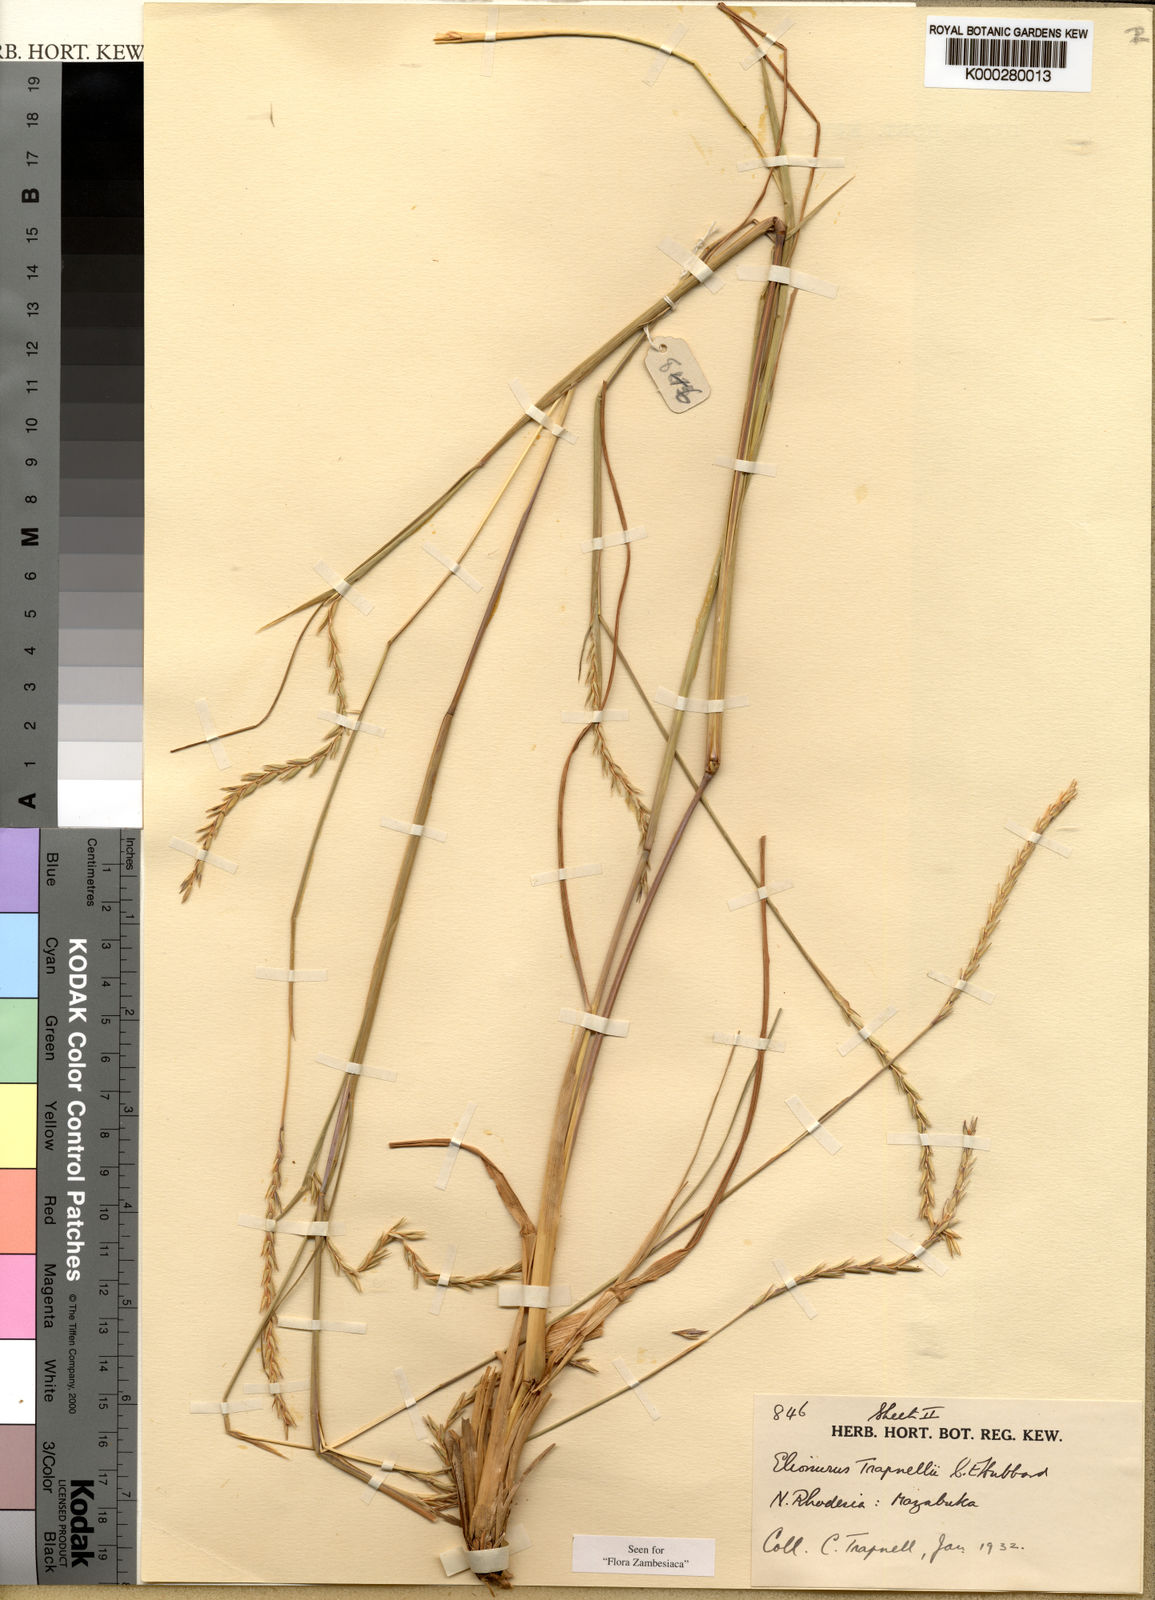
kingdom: Plantae
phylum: Tracheophyta
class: Liliopsida
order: Poales
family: Poaceae
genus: Elionurus
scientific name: Elionurus tripsacoides
